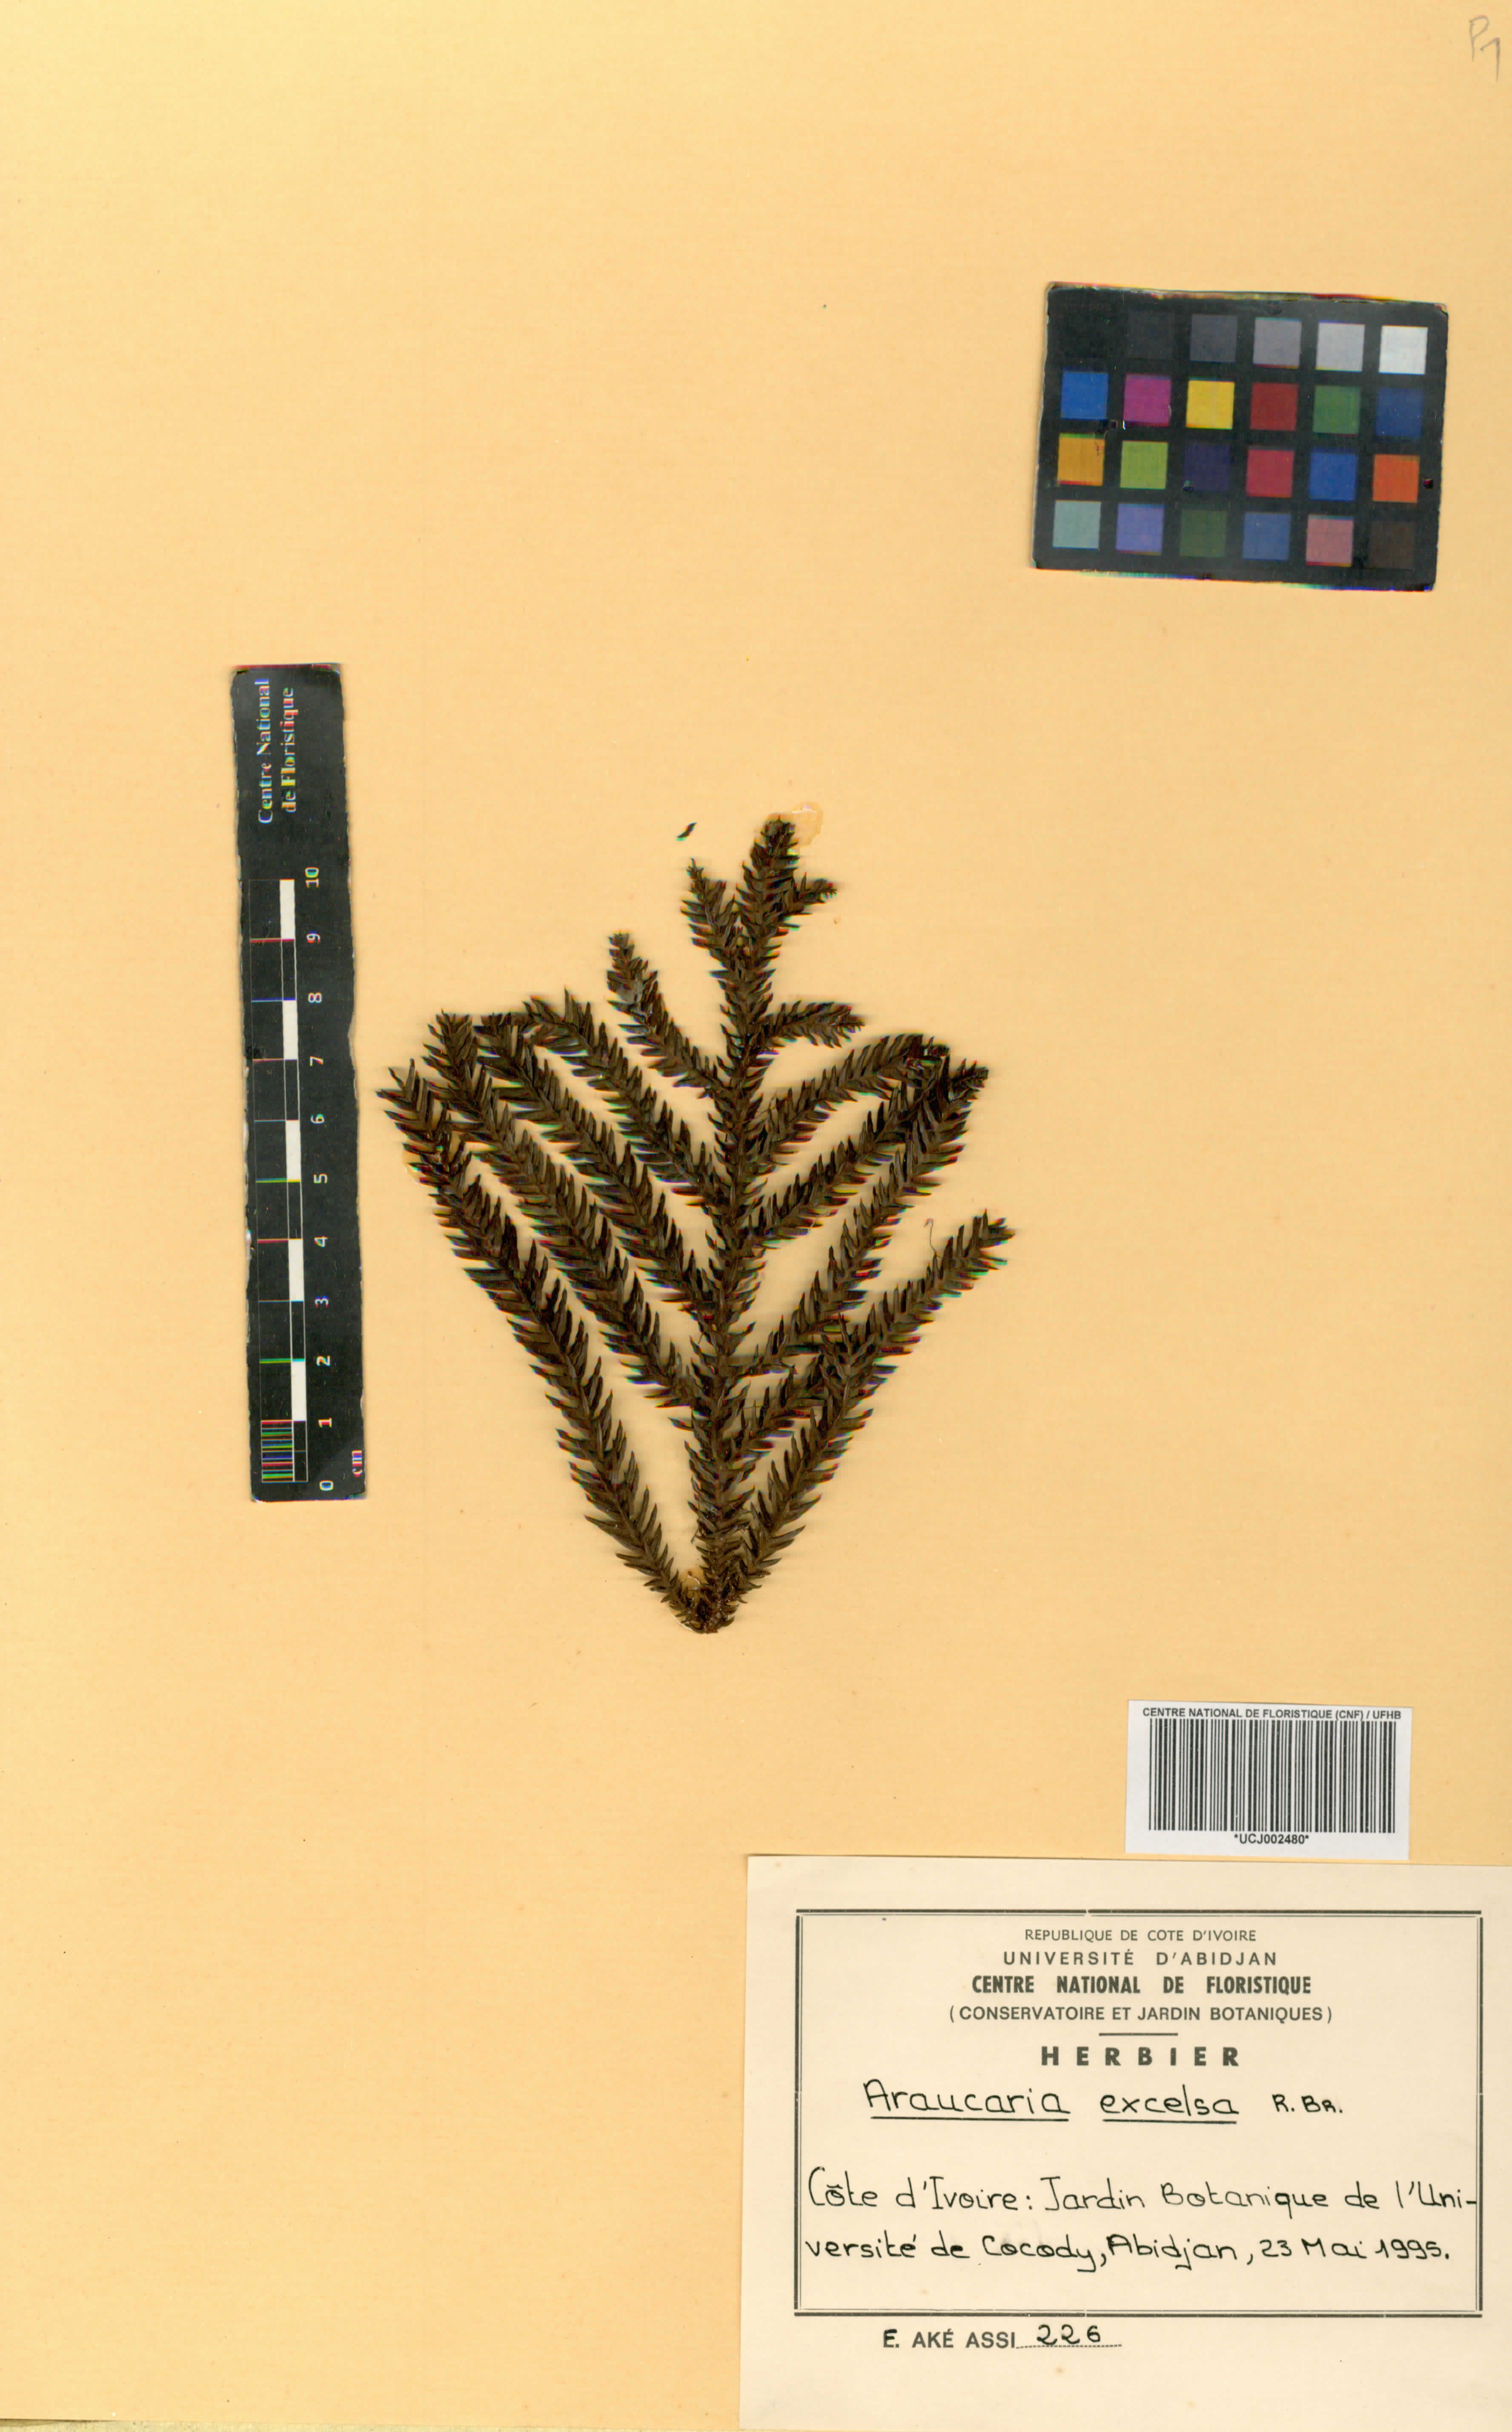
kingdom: Plantae
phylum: Tracheophyta
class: Pinopsida
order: Pinales
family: Araucariaceae
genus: Araucaria
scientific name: Araucaria columnaris
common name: Coral reef araucaria
